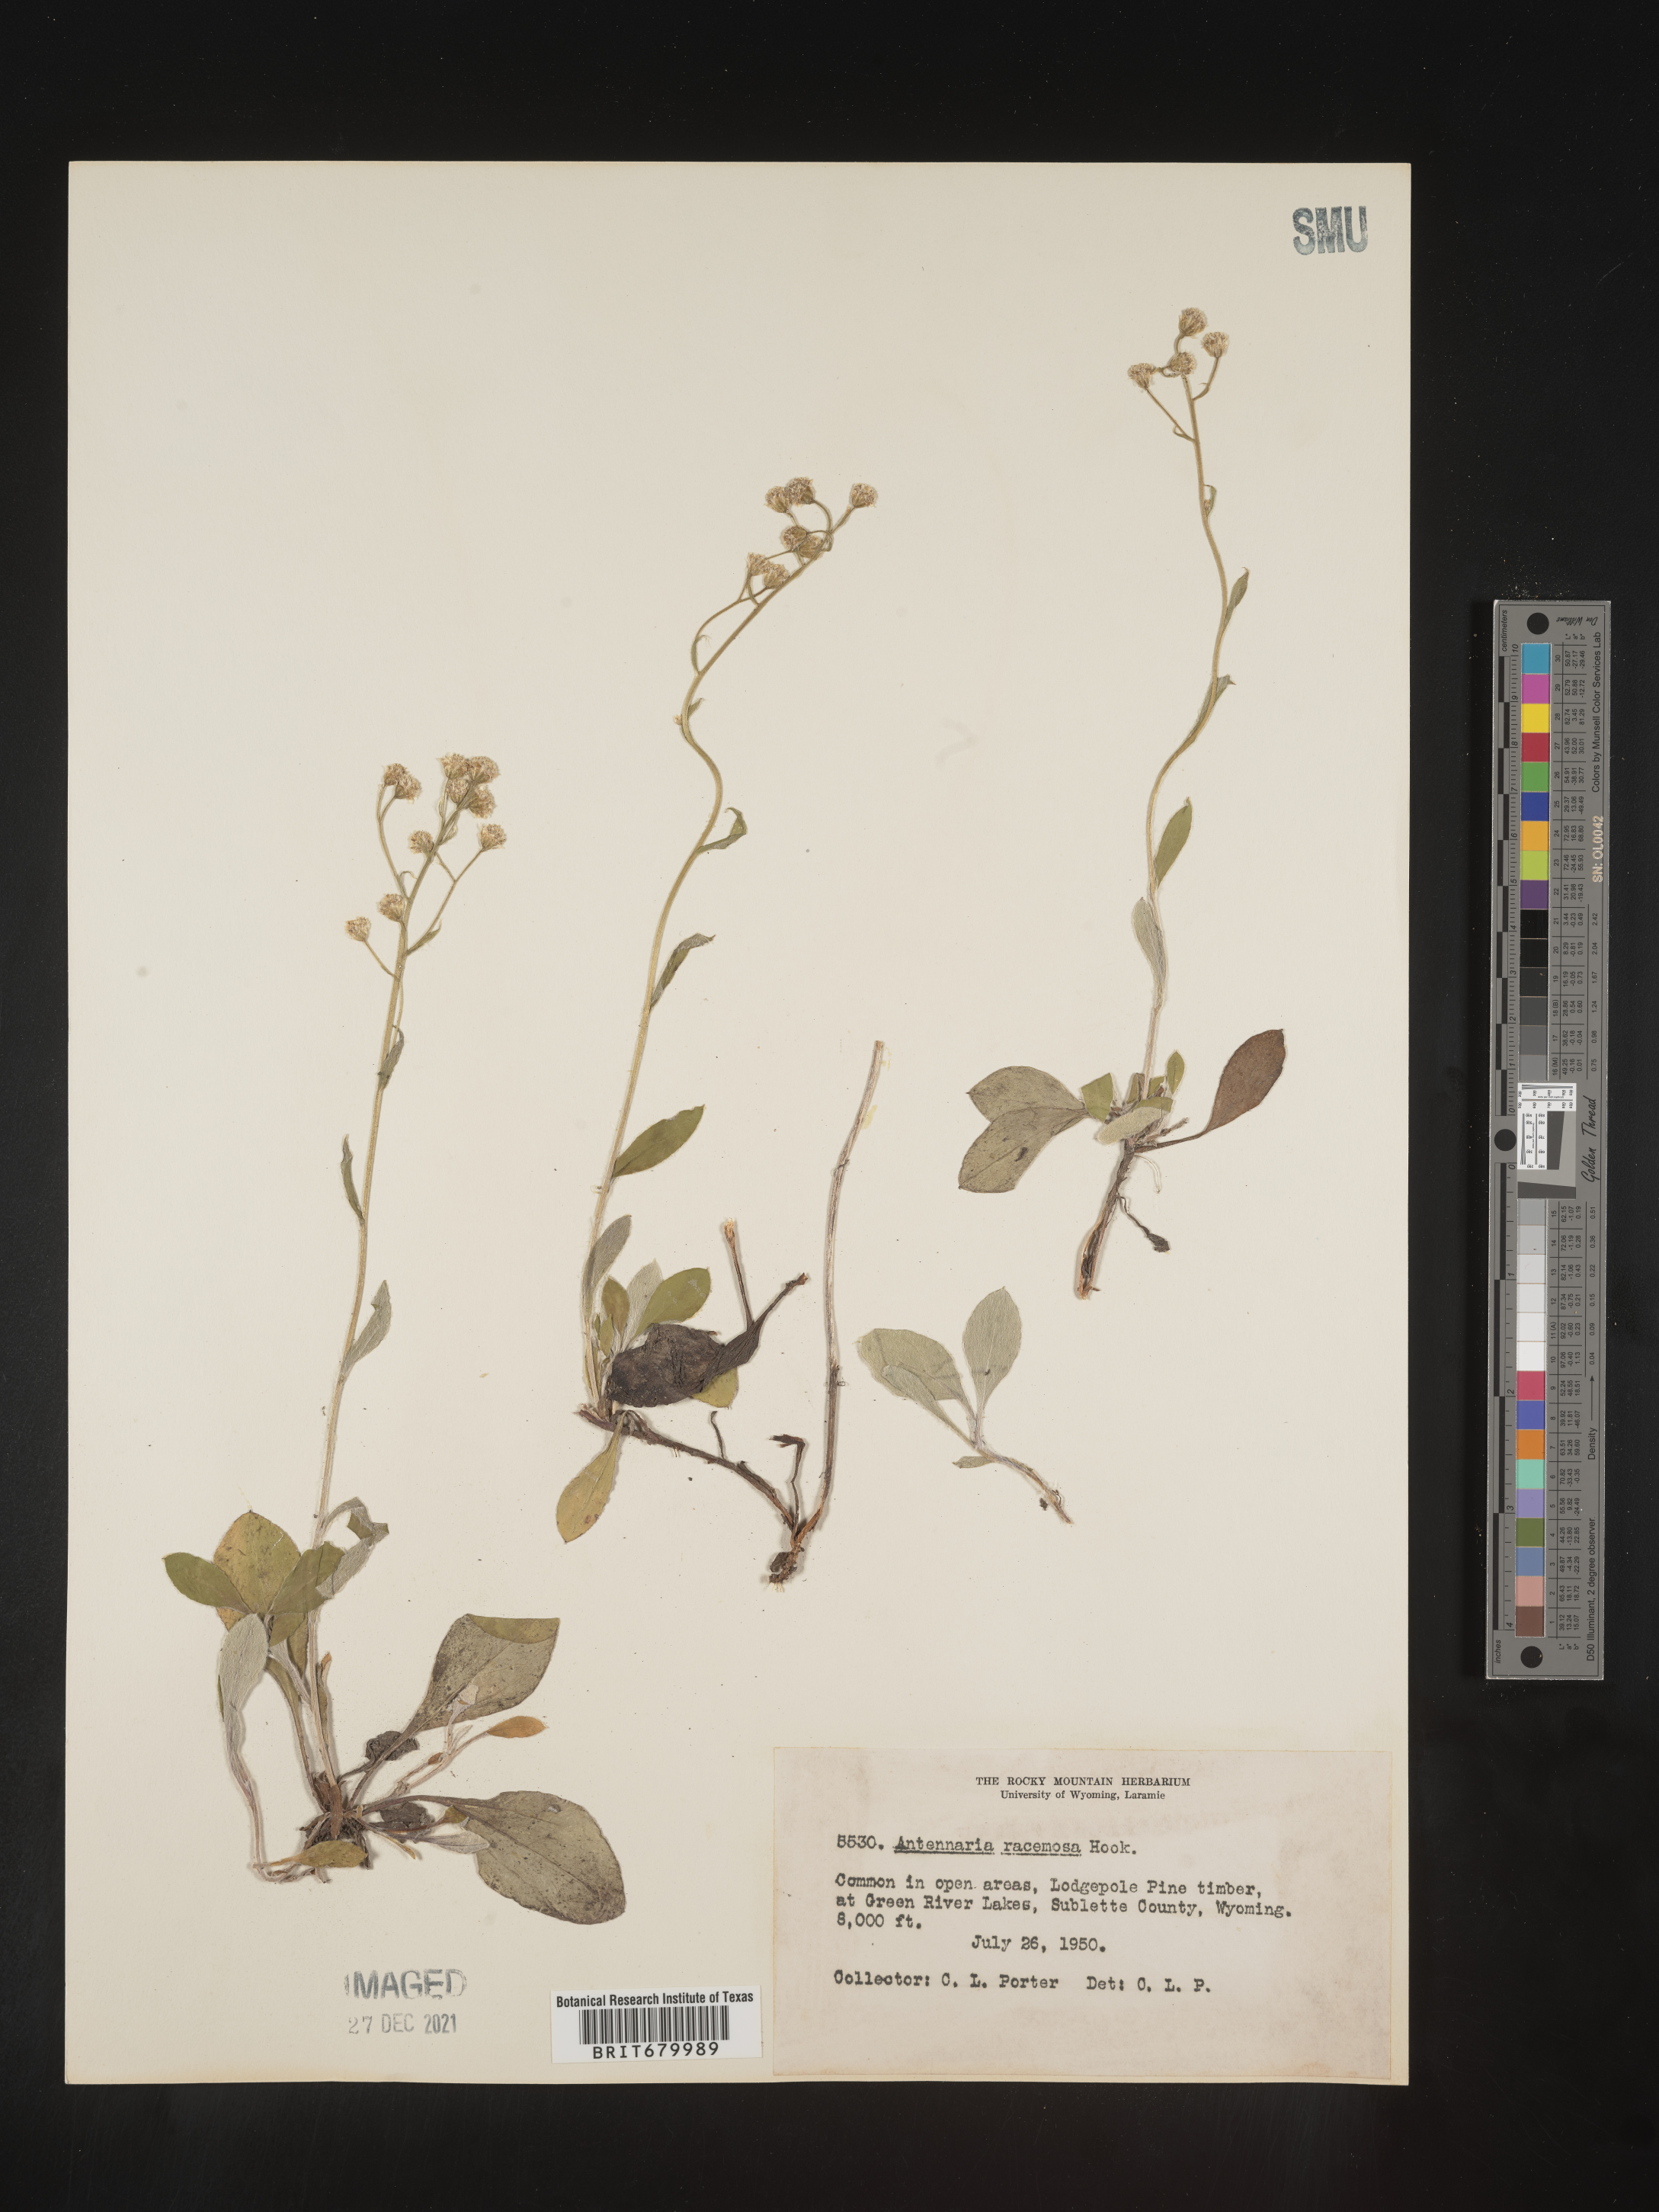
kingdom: Plantae
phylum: Tracheophyta
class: Magnoliopsida
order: Asterales
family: Asteraceae
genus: Antennaria
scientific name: Antennaria racemosa
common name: Racemose pussytoes
